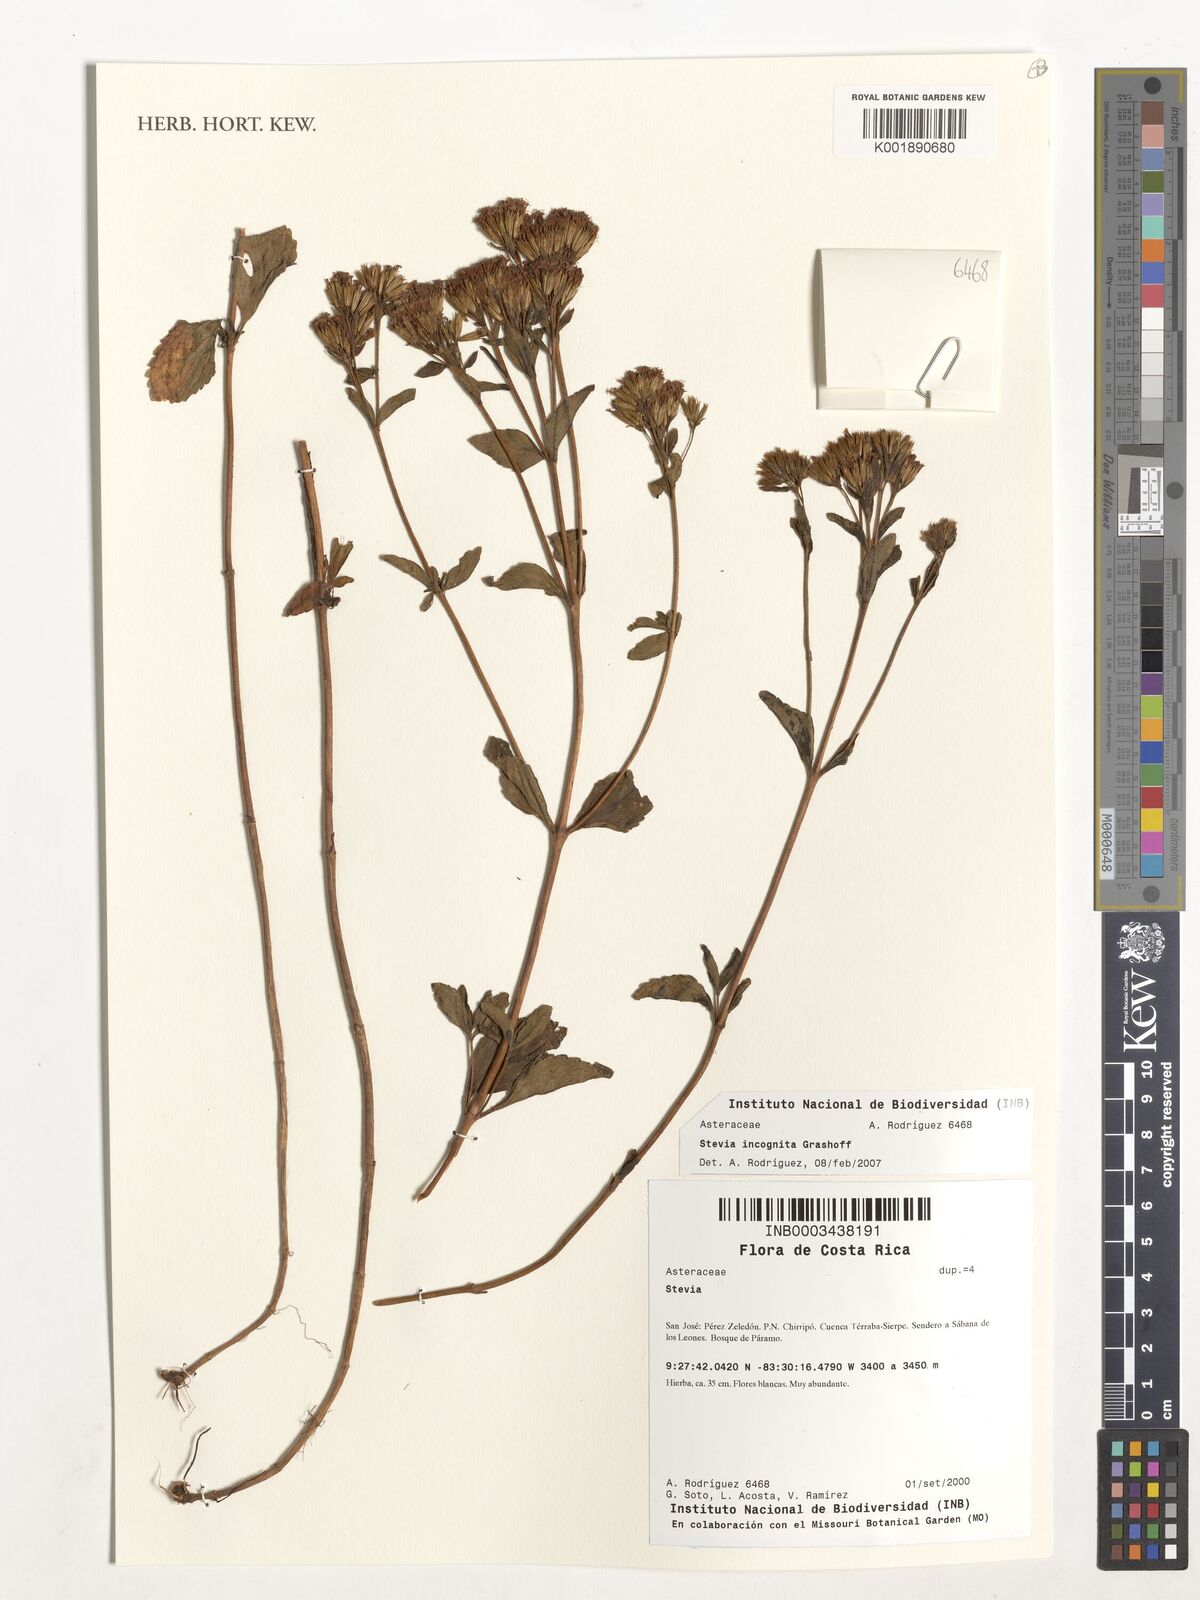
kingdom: Plantae
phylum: Tracheophyta
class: Magnoliopsida
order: Asterales
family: Asteraceae
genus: Stevia
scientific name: Stevia
